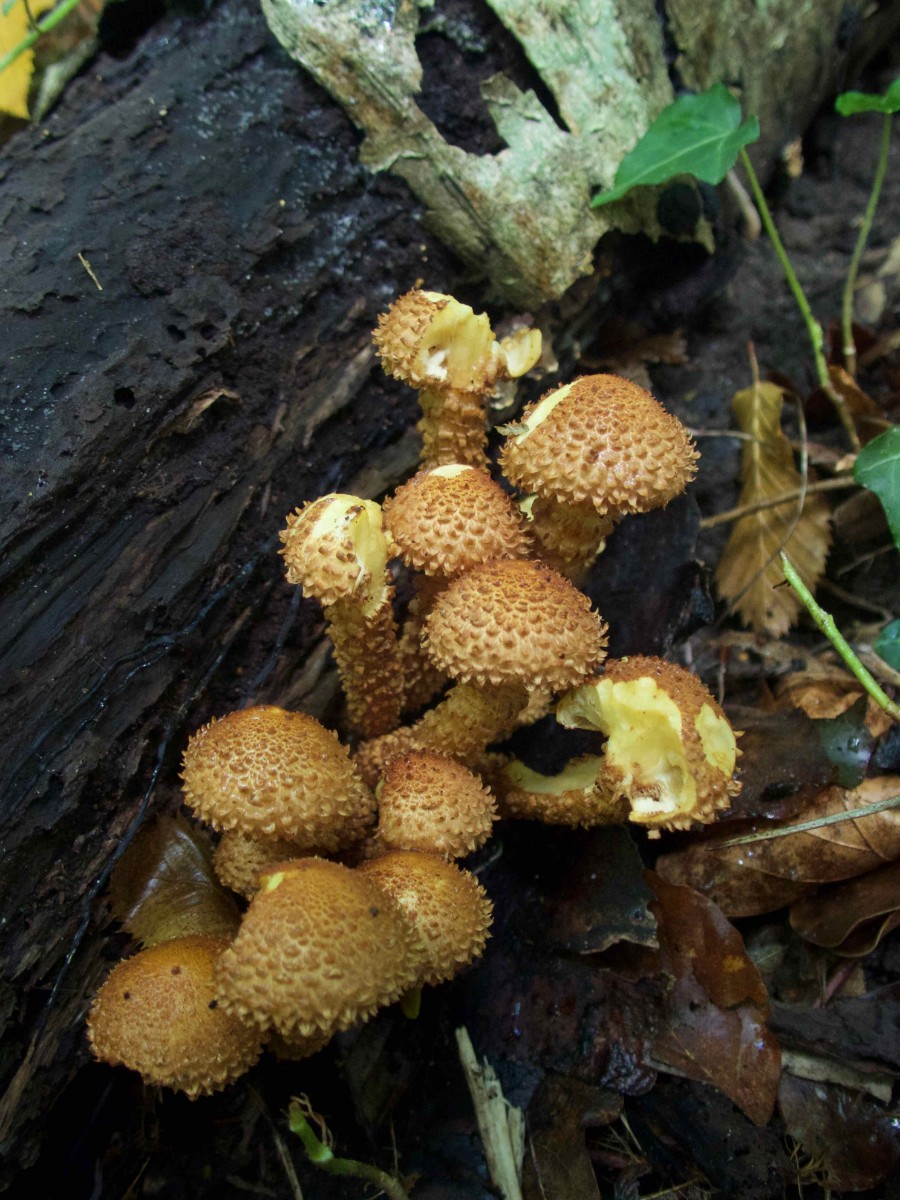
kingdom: Fungi
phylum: Basidiomycota
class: Agaricomycetes
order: Agaricales
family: Strophariaceae
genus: Pholiota
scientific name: Pholiota squarrosa
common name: krumskællet skælhat
